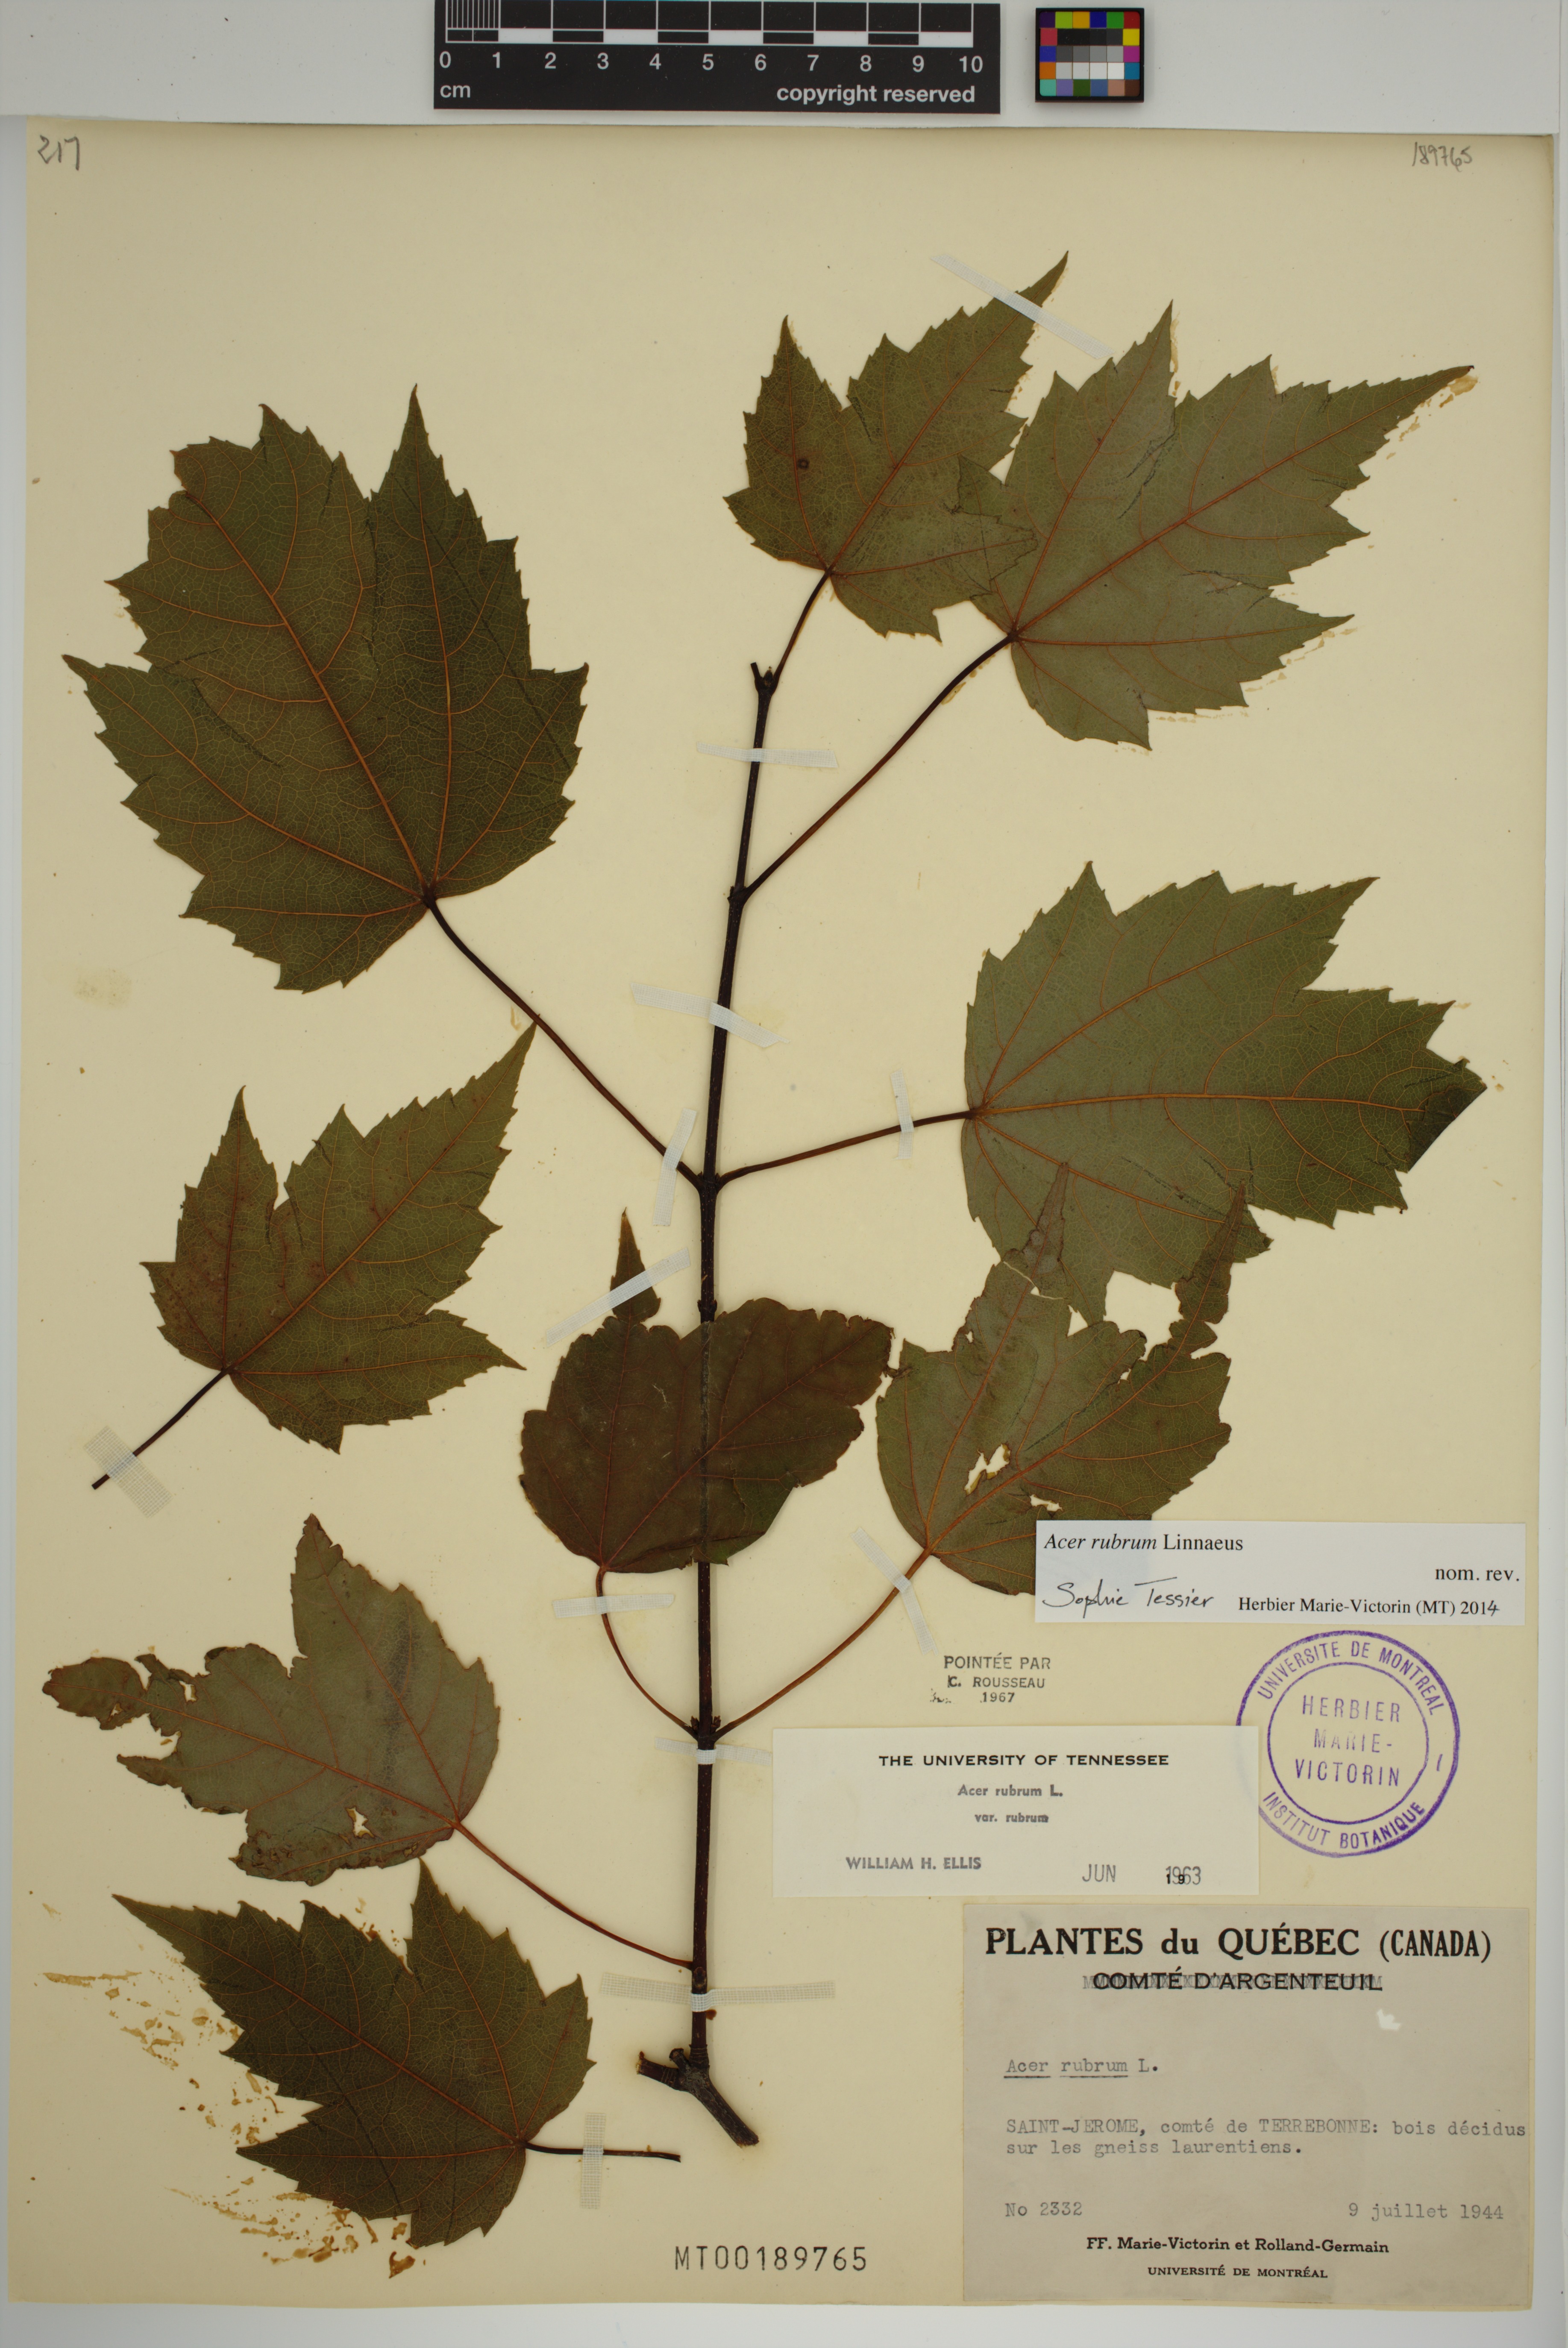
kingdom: Plantae
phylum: Tracheophyta
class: Magnoliopsida
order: Sapindales
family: Sapindaceae
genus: Acer
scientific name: Acer rubrum
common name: Red maple
